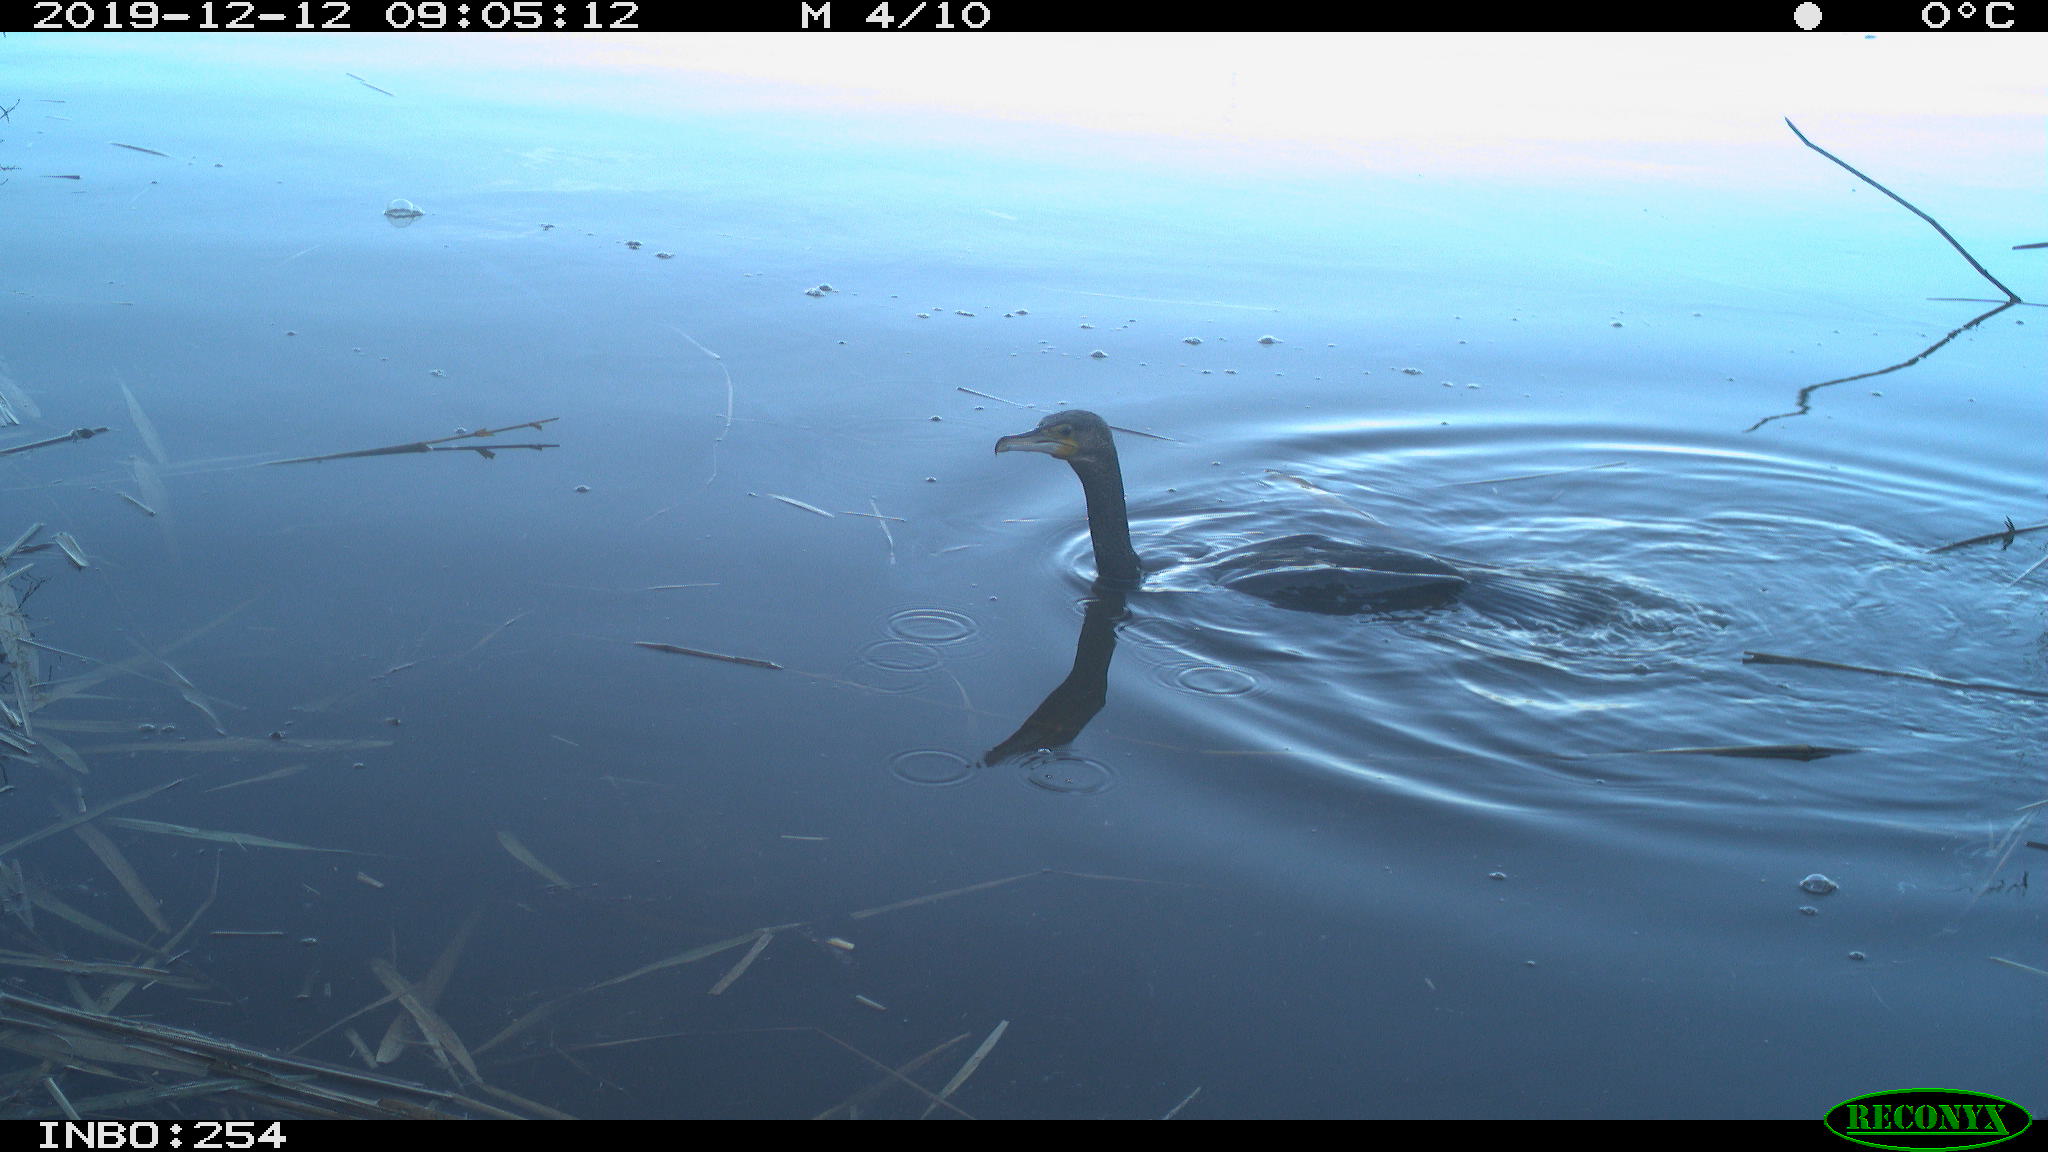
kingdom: Animalia
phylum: Chordata
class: Aves
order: Suliformes
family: Phalacrocoracidae
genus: Phalacrocorax
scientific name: Phalacrocorax carbo
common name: Great cormorant
